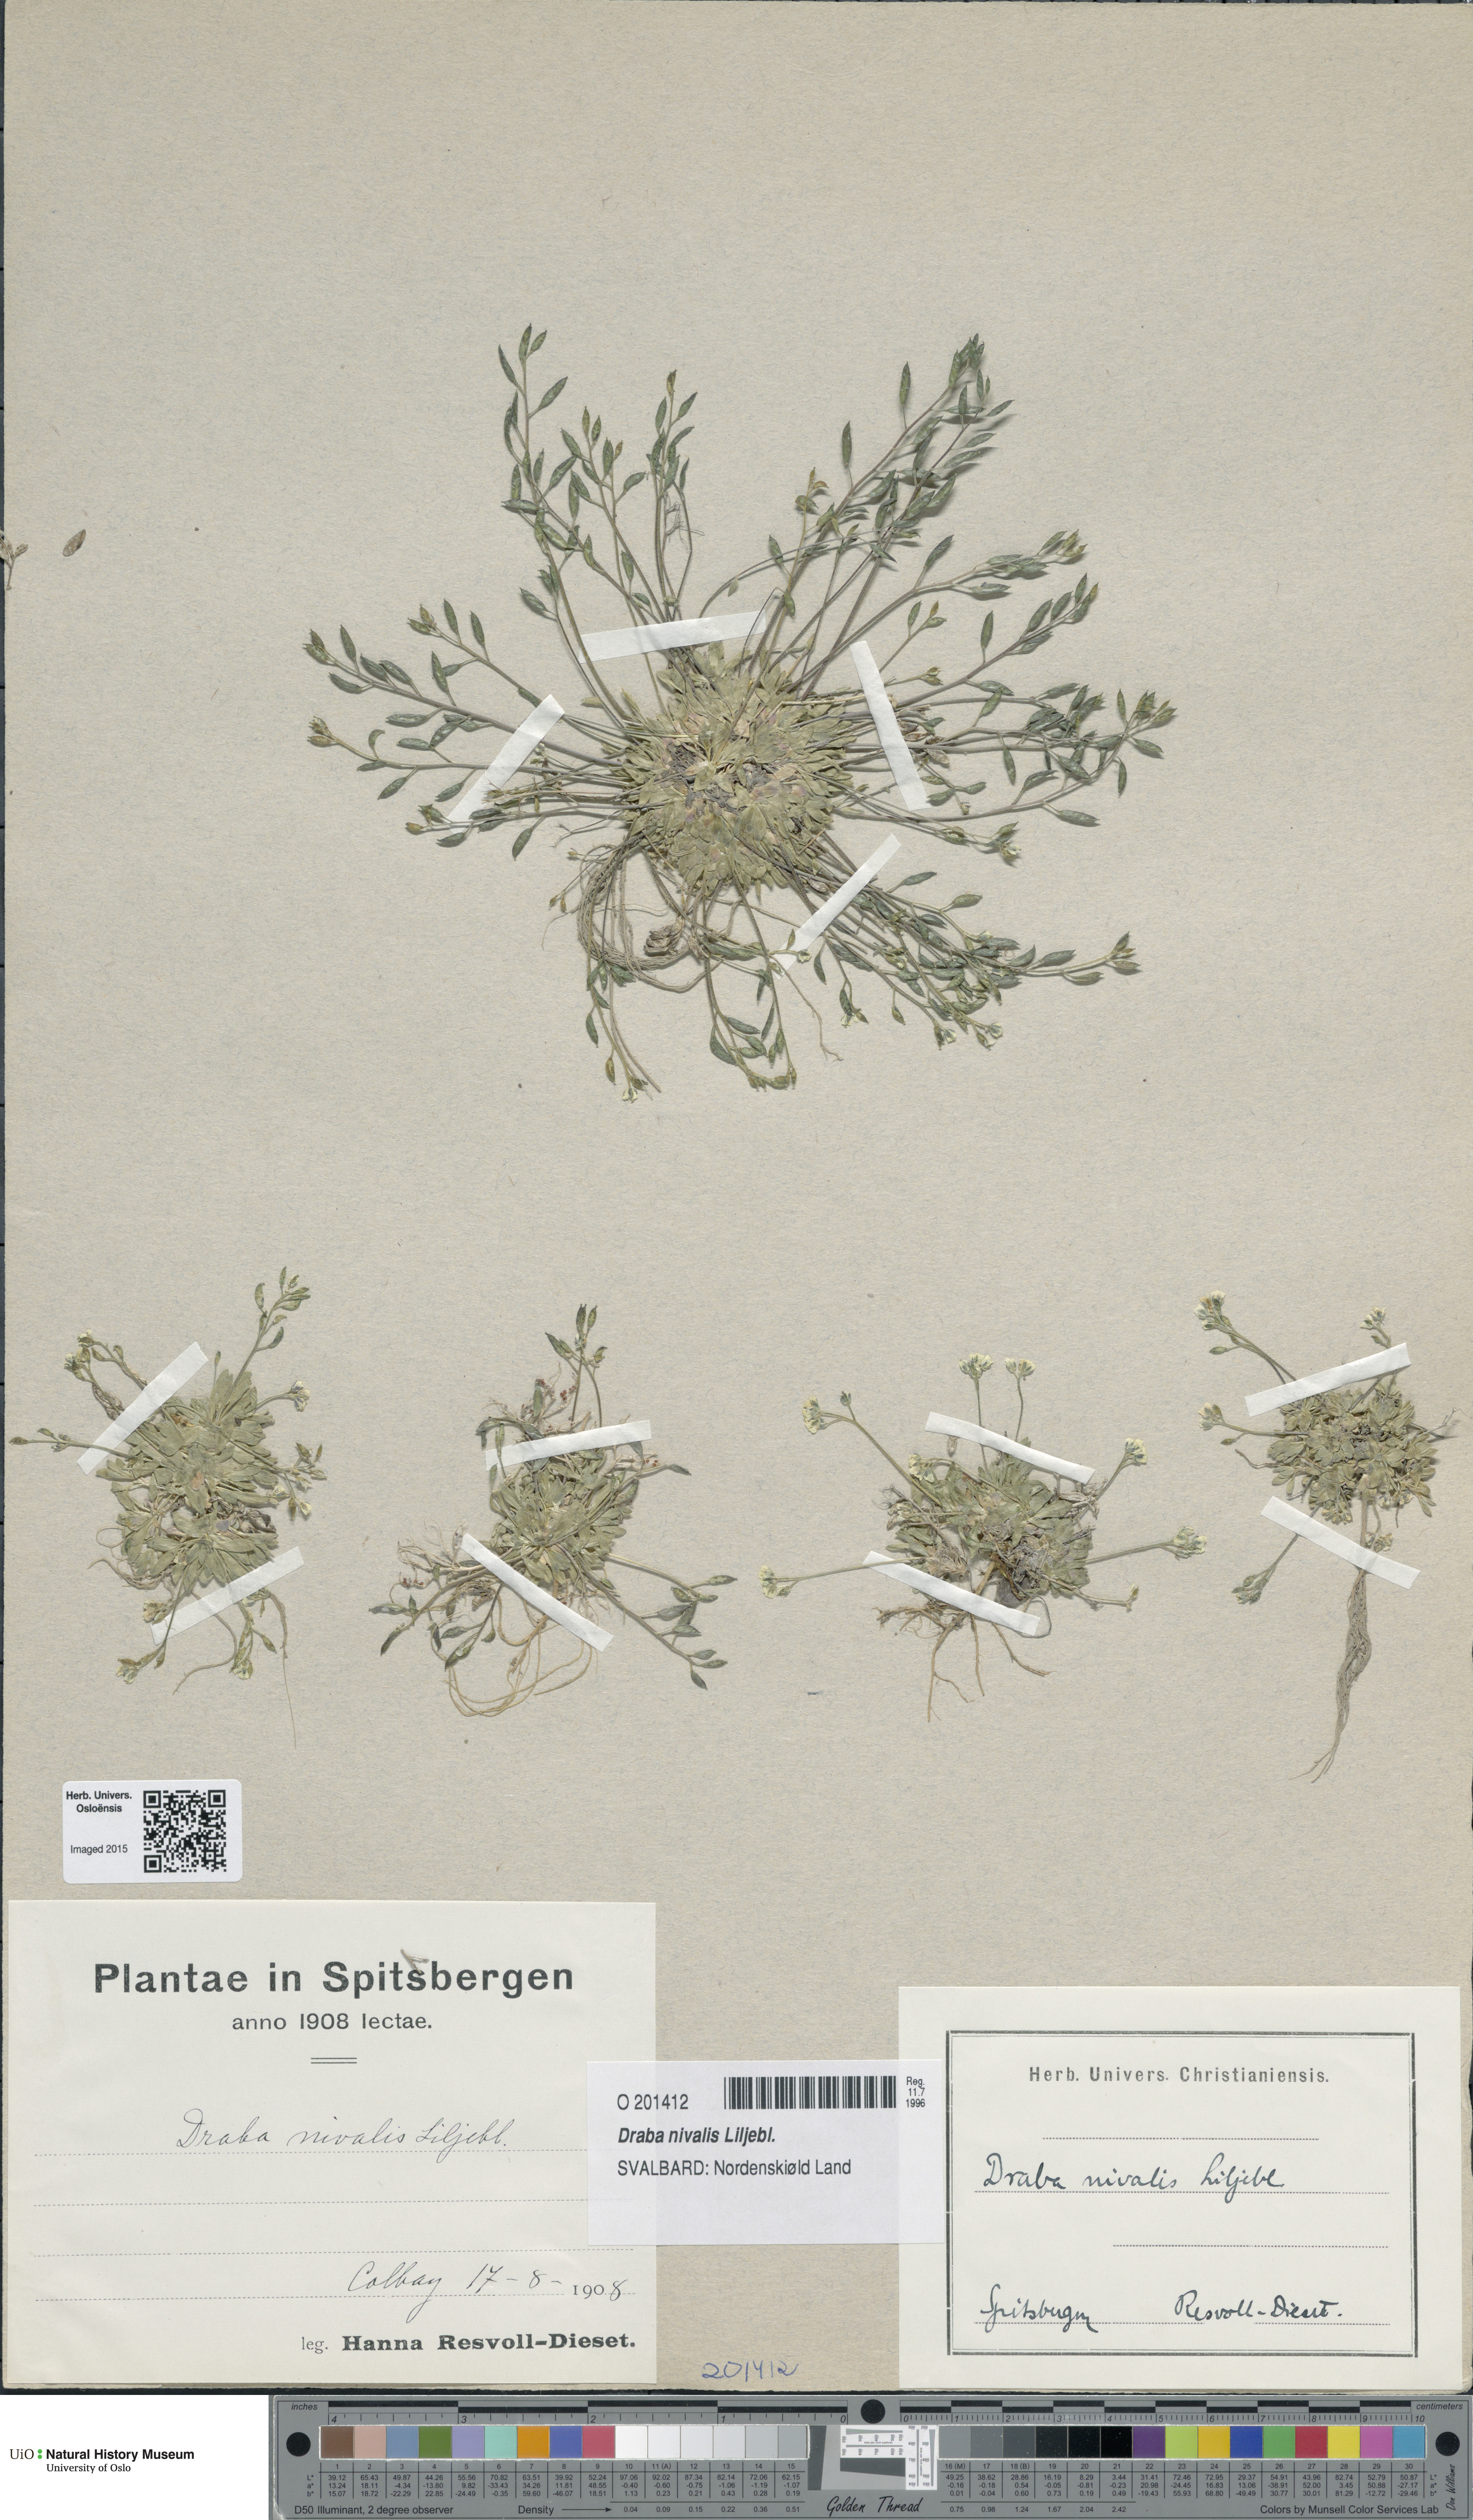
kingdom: Plantae
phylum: Tracheophyta
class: Magnoliopsida
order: Brassicales
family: Brassicaceae
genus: Draba
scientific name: Draba nivalis
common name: Snow draba
